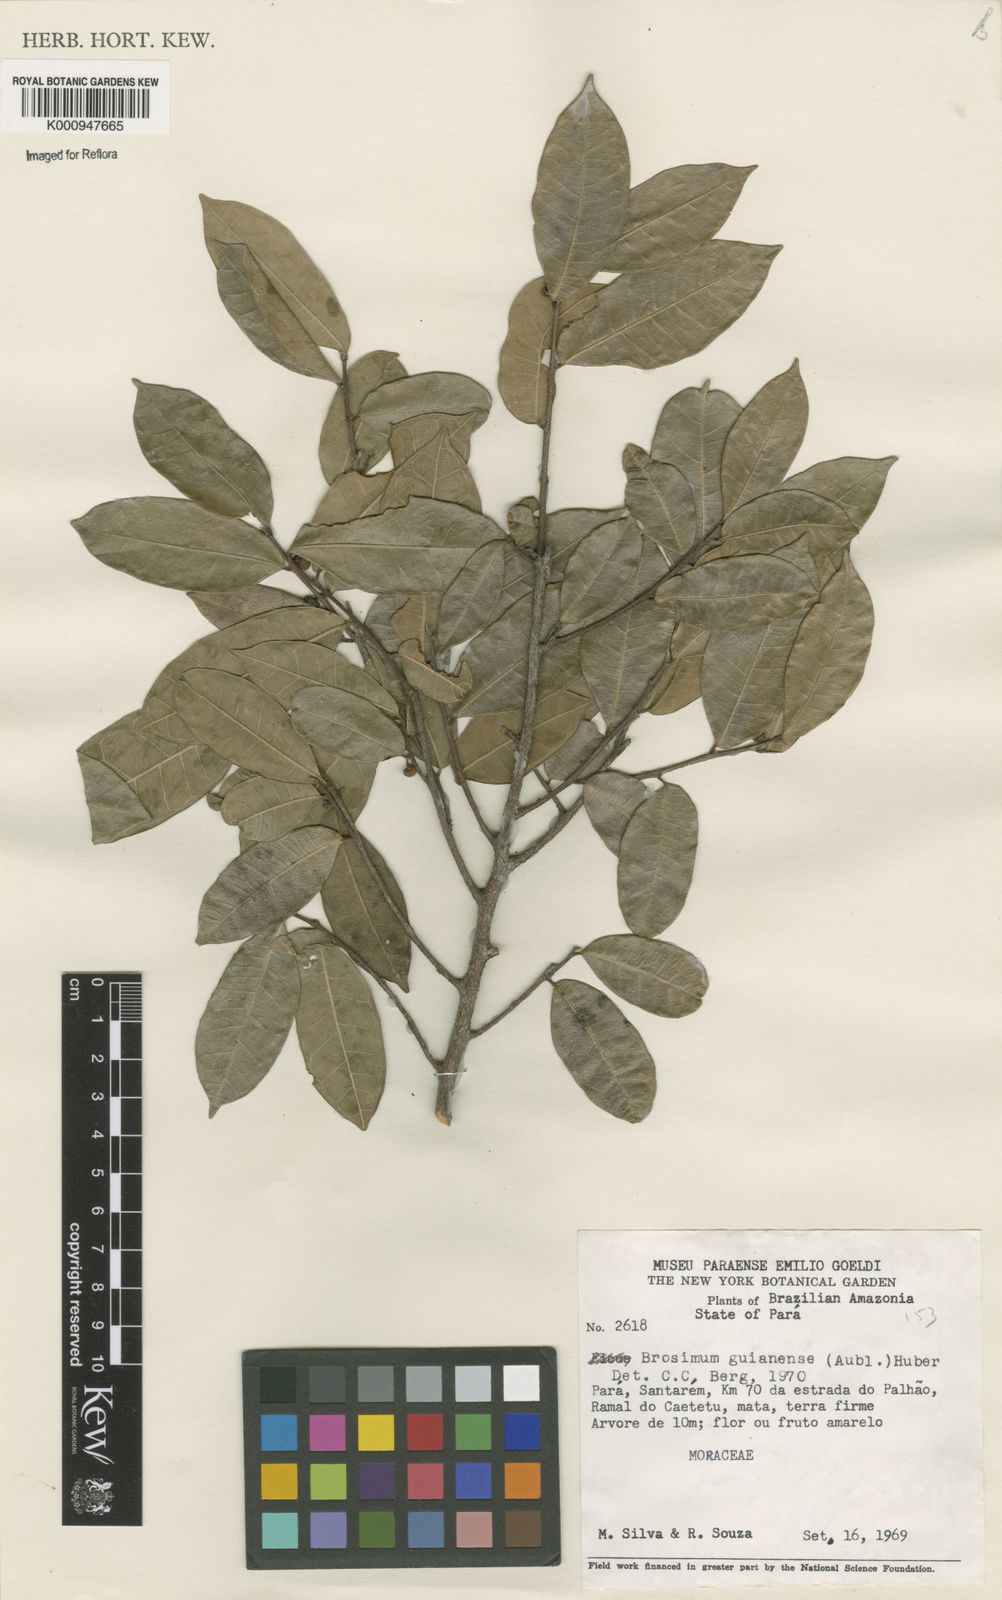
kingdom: Plantae
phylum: Tracheophyta
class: Magnoliopsida
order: Rosales
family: Moraceae
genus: Brosimum
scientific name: Brosimum
